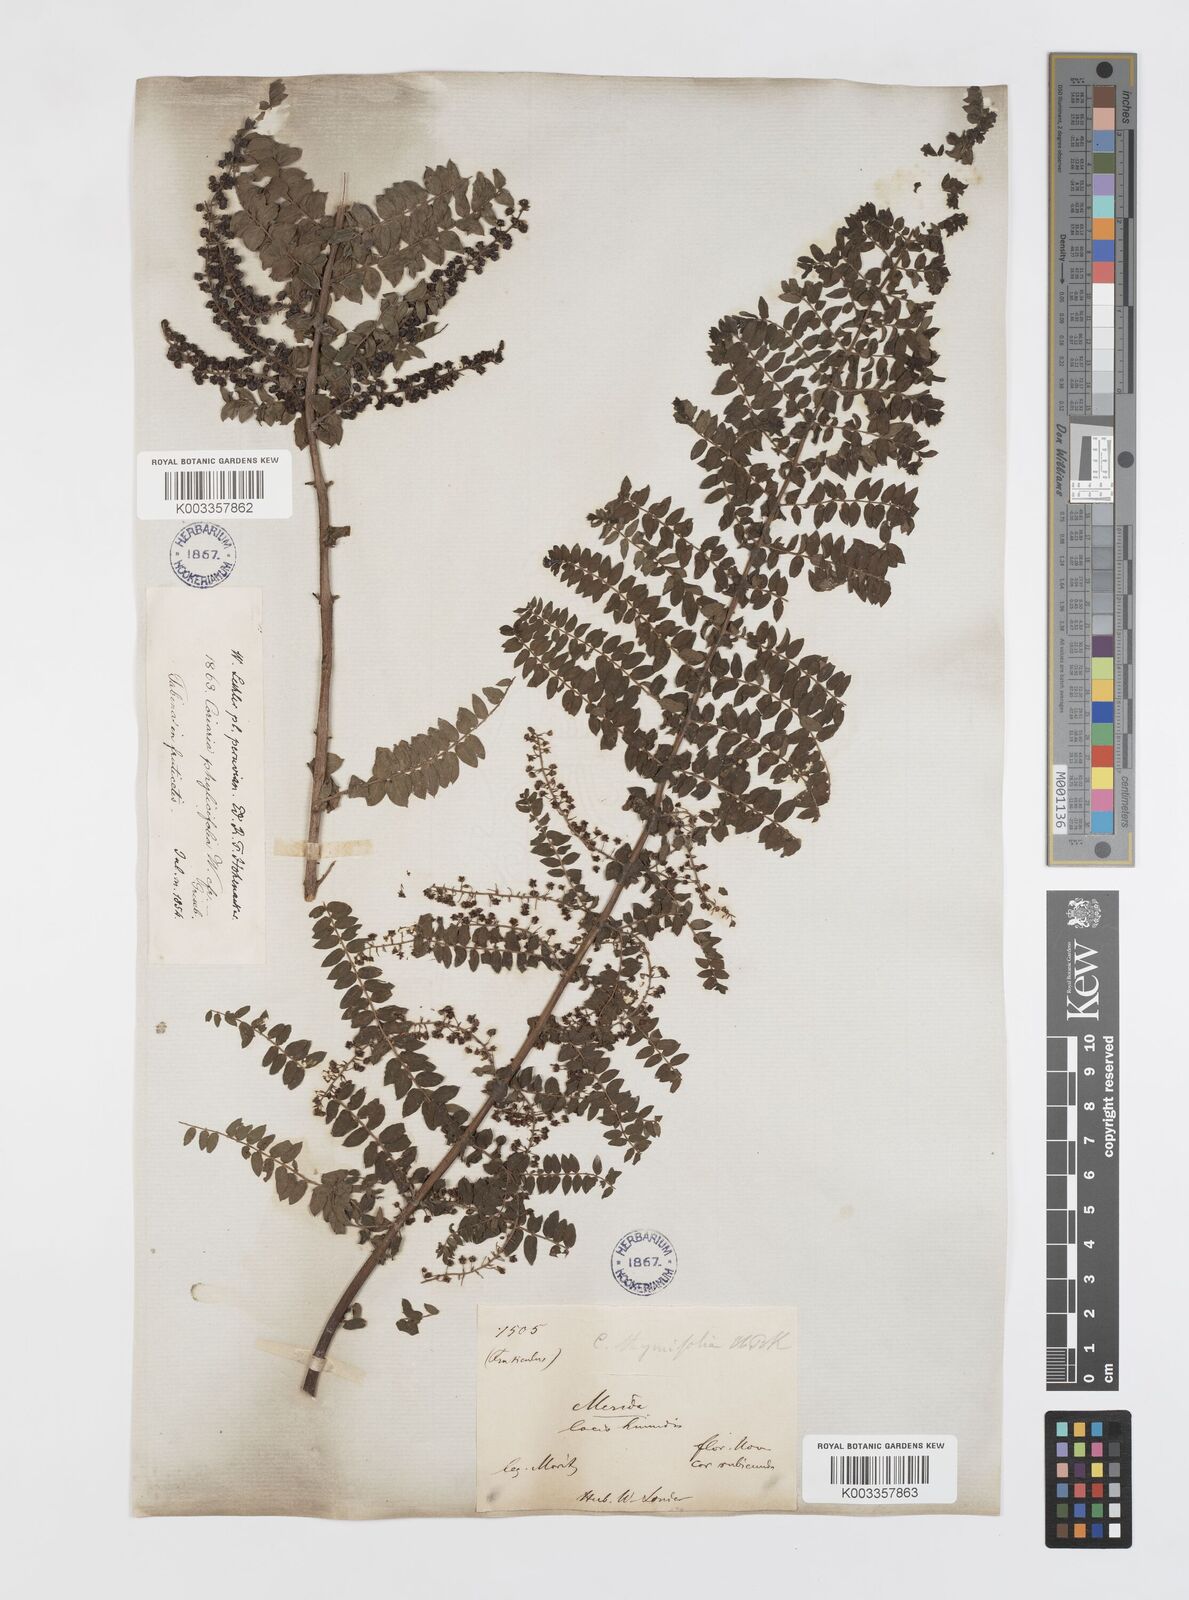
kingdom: Plantae
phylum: Tracheophyta
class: Magnoliopsida
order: Cucurbitales
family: Coriariaceae
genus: Coriaria
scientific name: Coriaria microphylla
